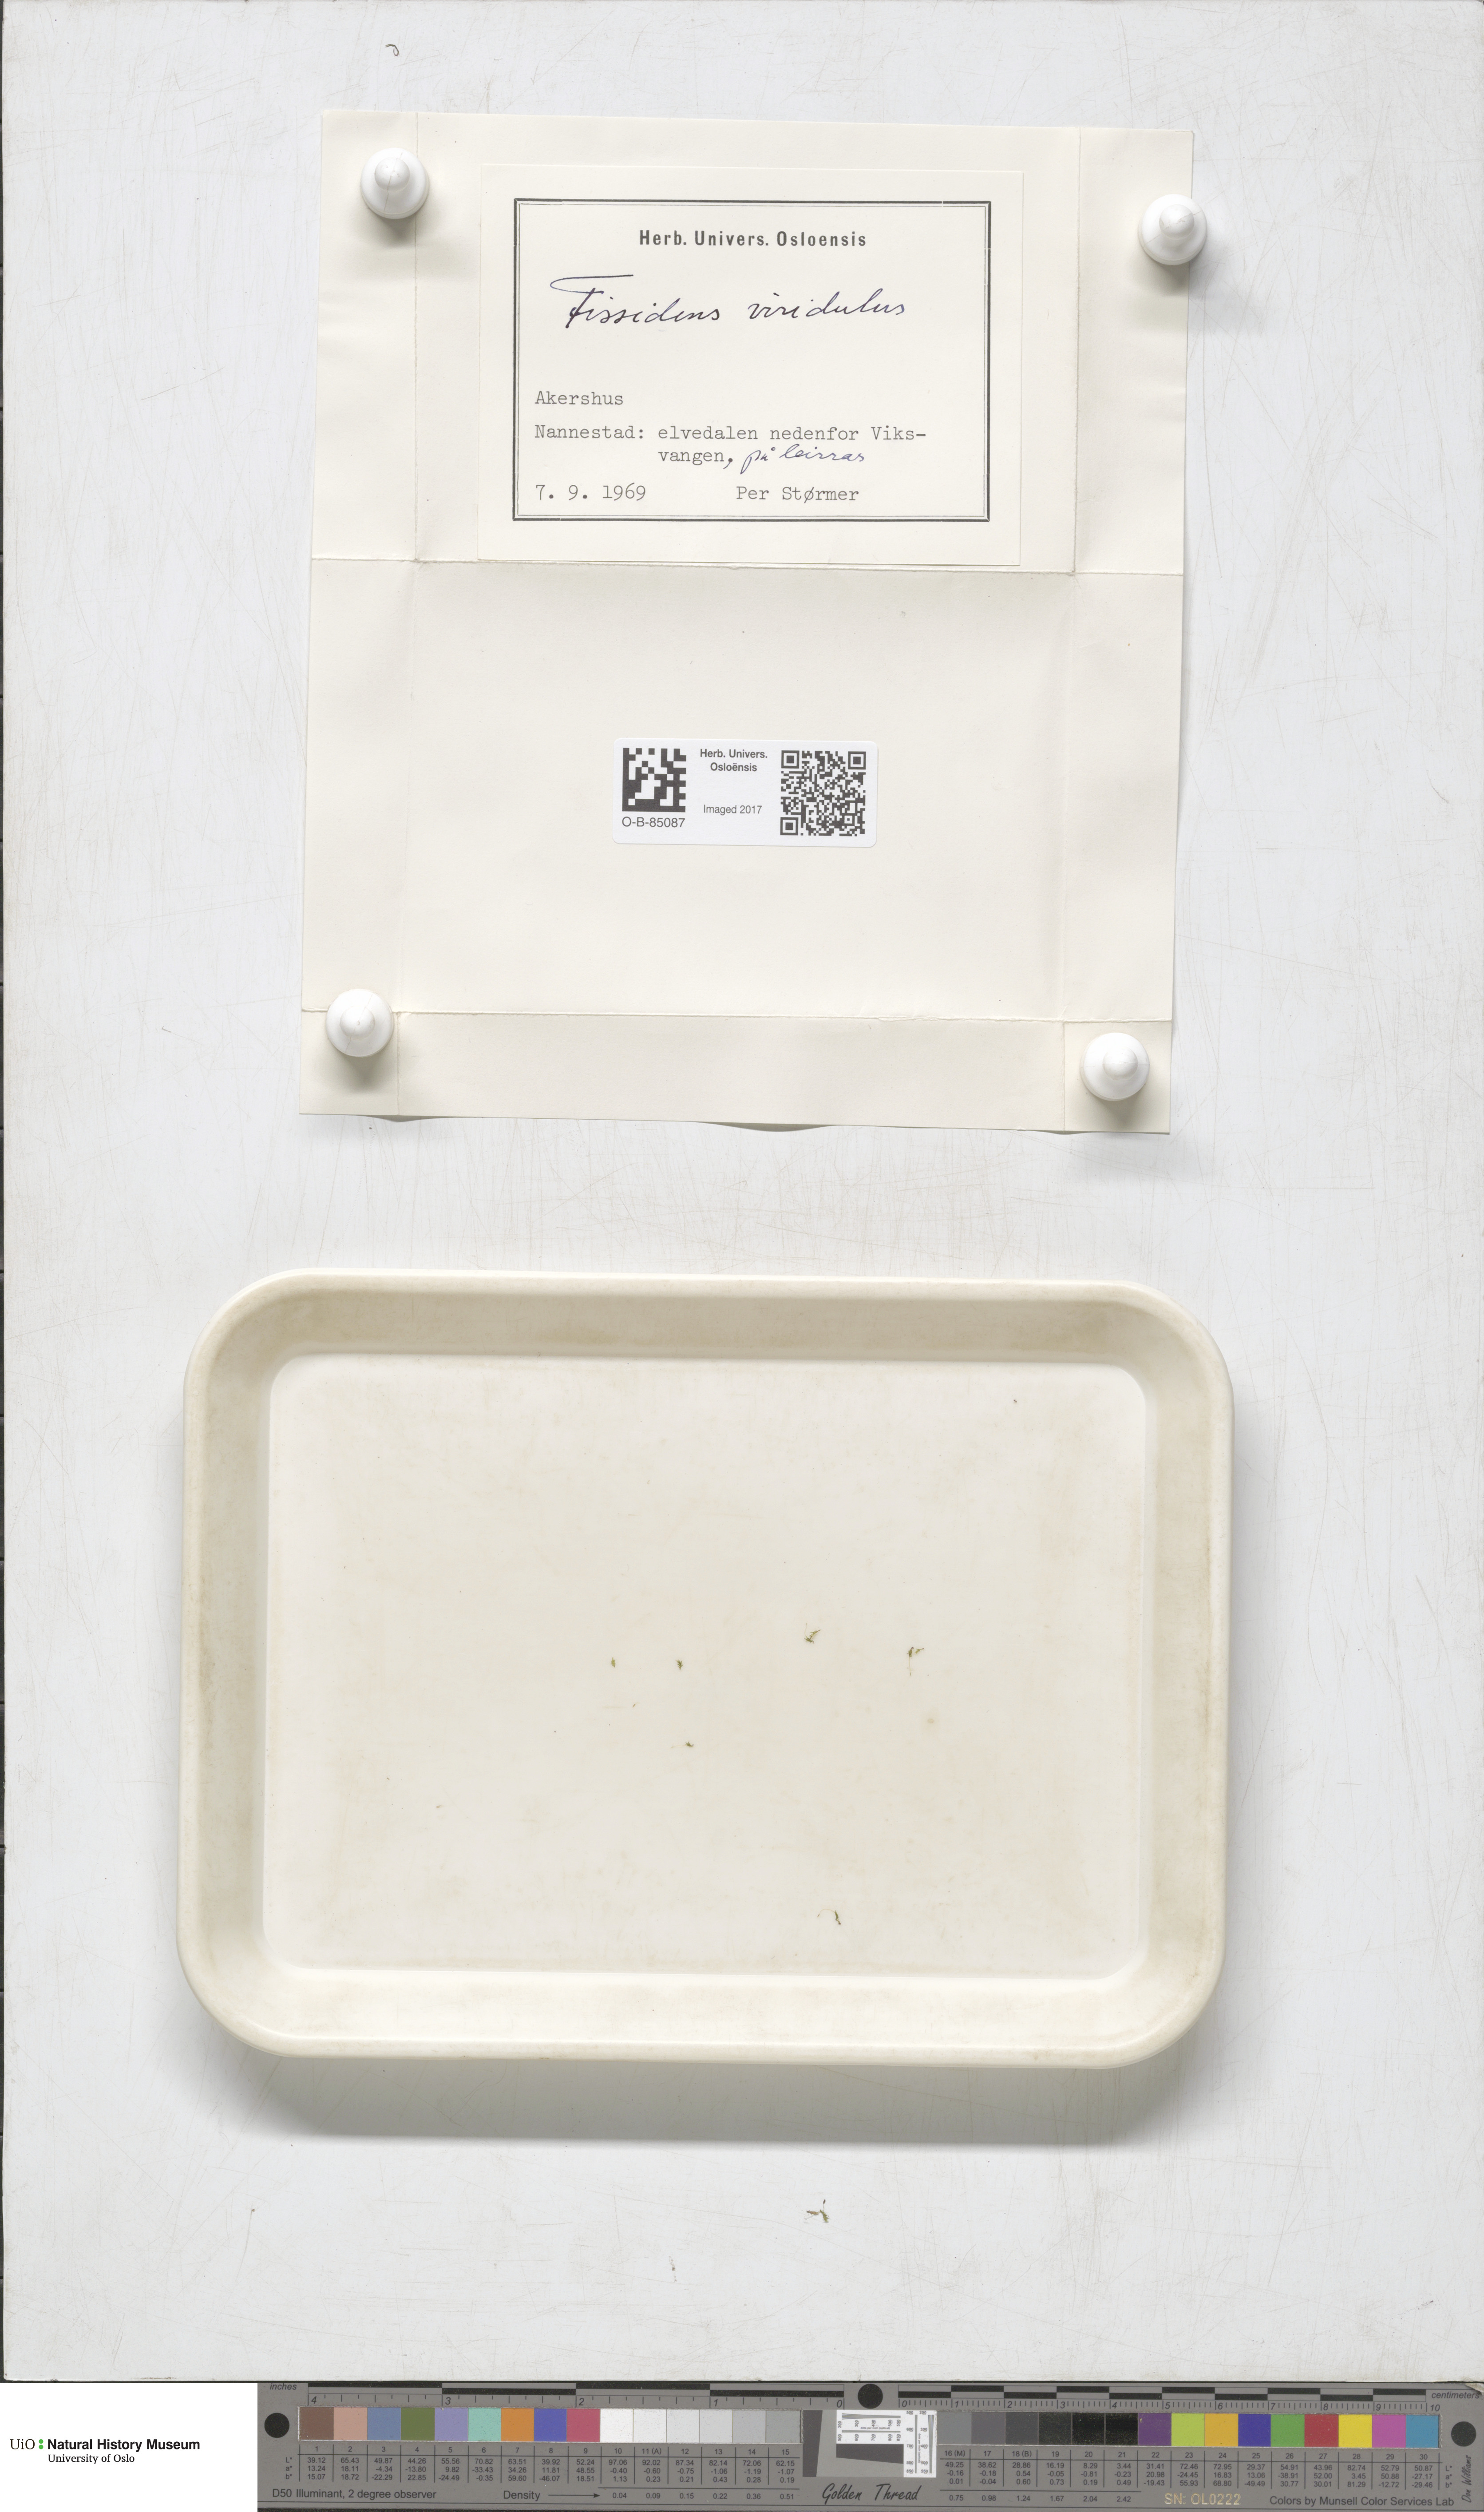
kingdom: Plantae
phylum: Bryophyta
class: Bryopsida
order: Dicranales
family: Fissidentaceae
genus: Fissidens
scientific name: Fissidens viridulus
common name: Green pocket-moss
